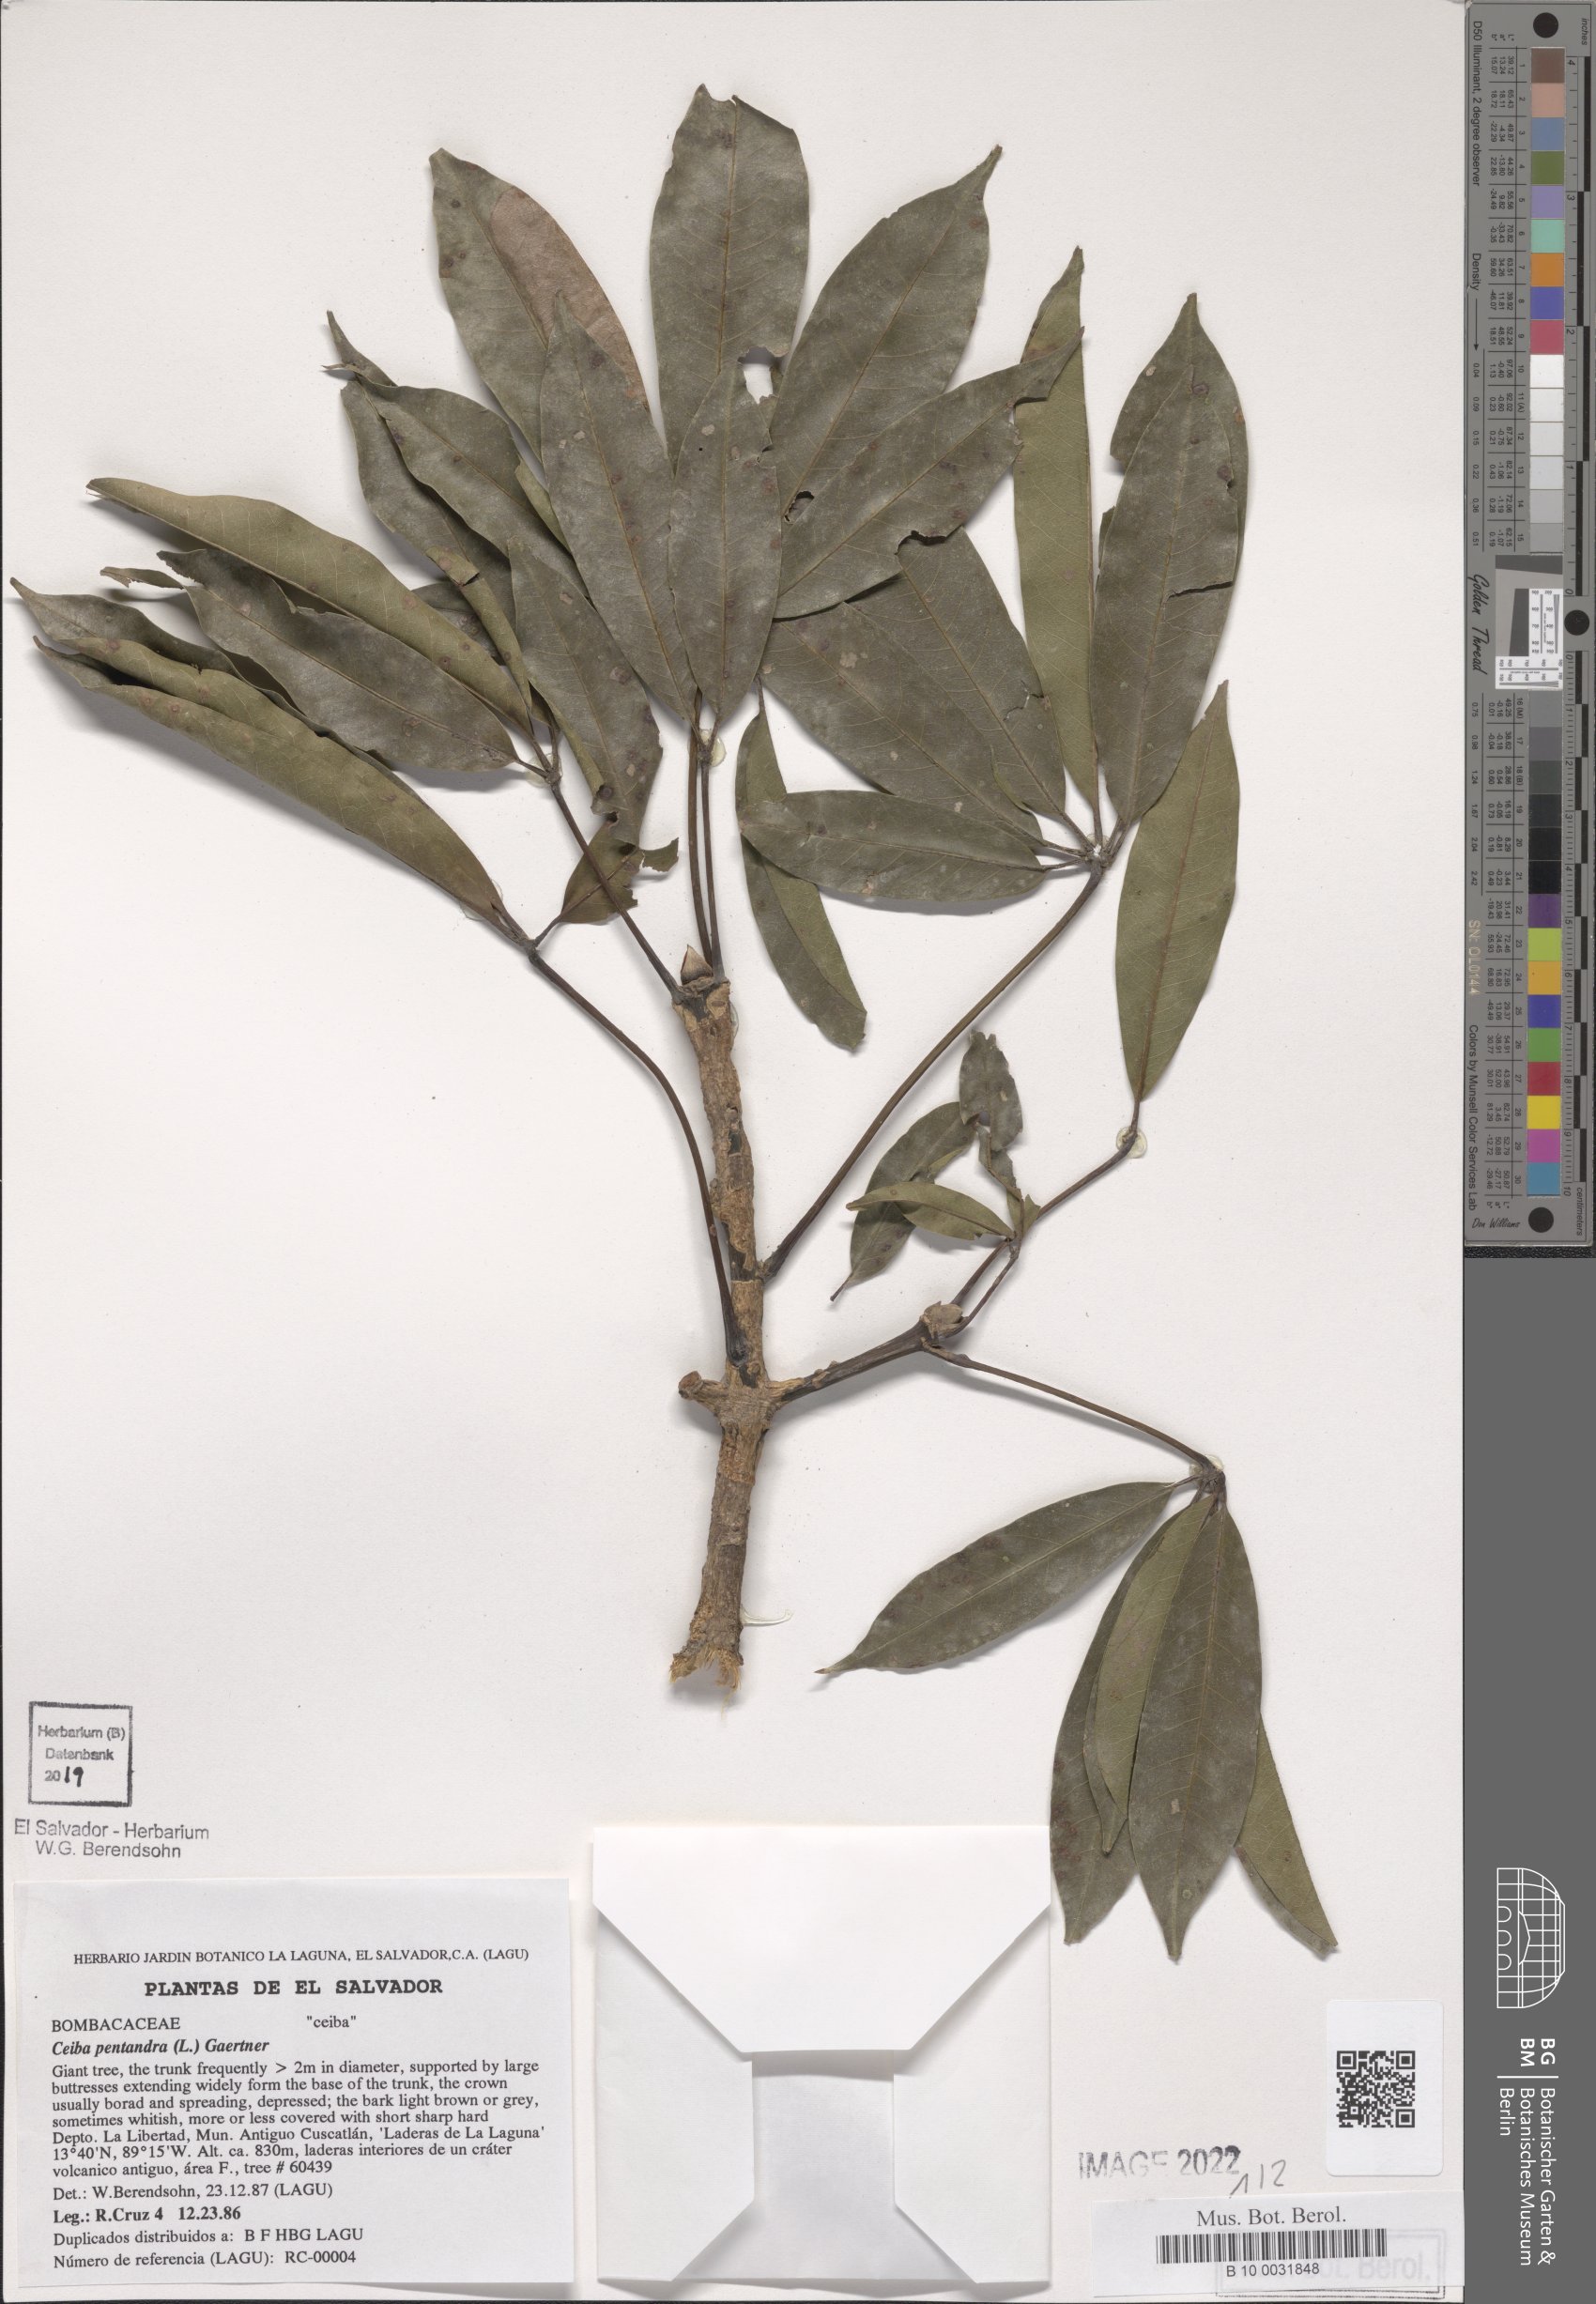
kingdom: Plantae
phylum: Tracheophyta
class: Magnoliopsida
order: Malvales
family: Malvaceae
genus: Ceiba
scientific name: Ceiba pentandra
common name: Kapok
